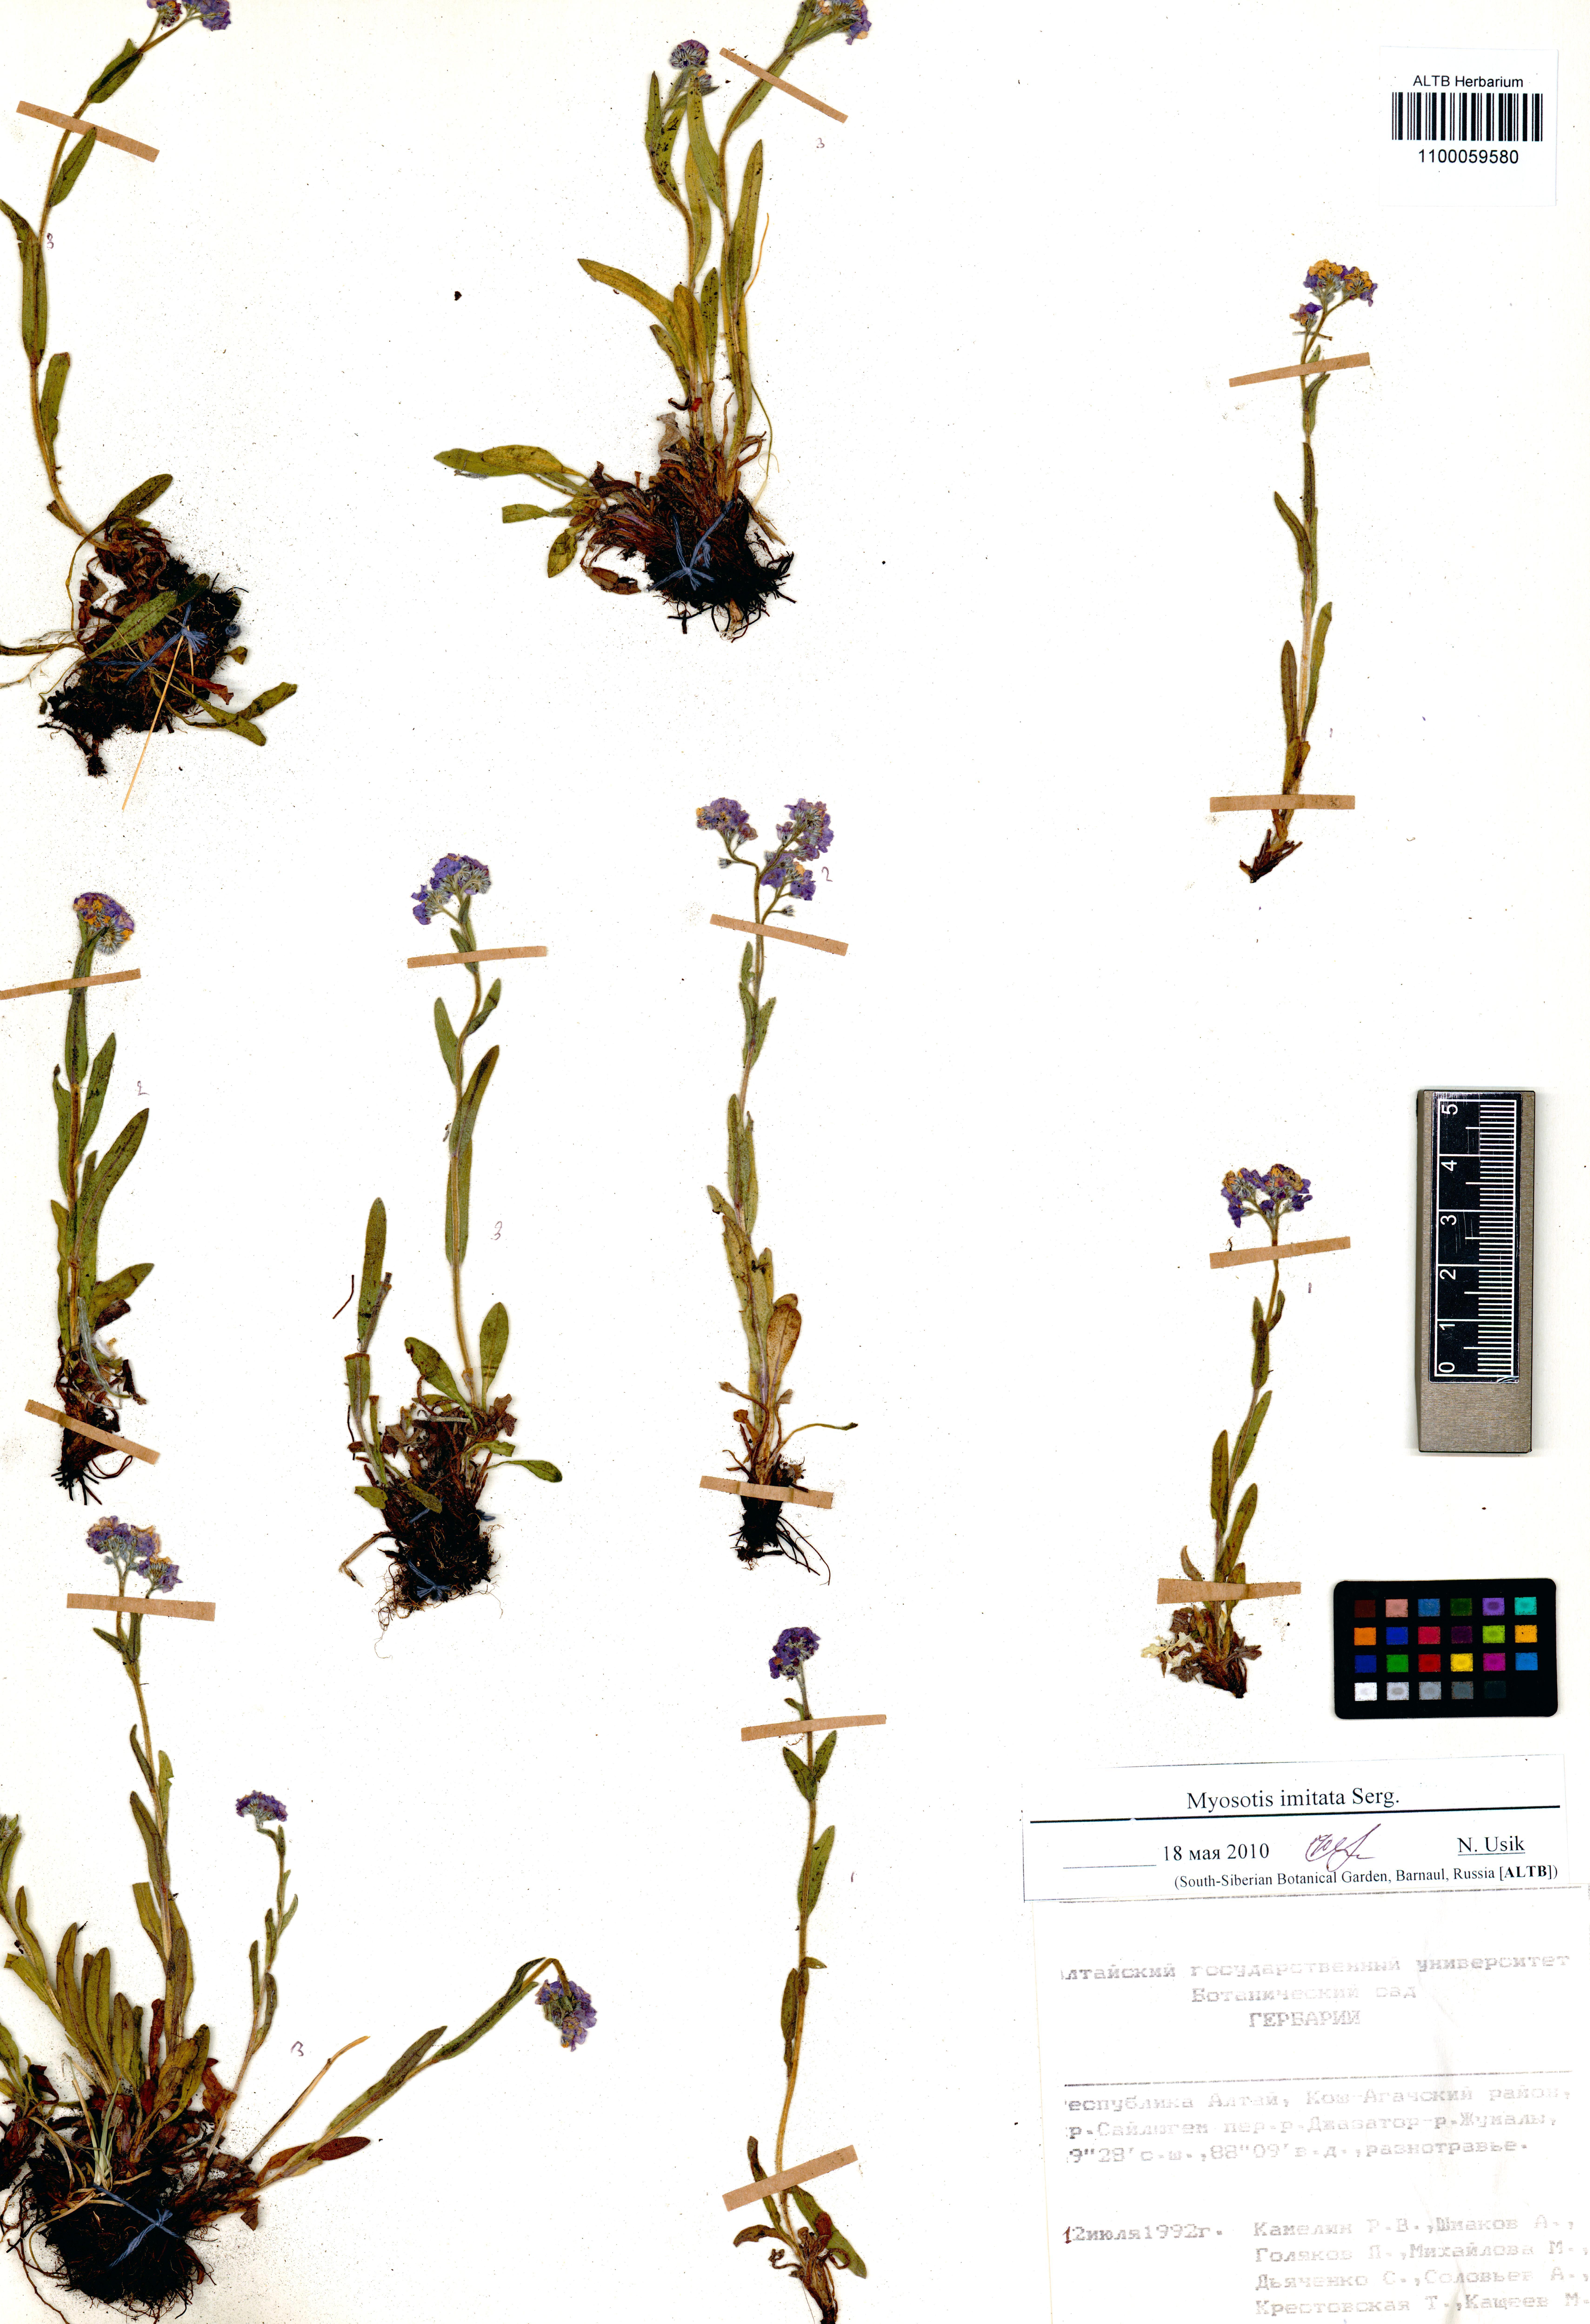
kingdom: Plantae
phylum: Tracheophyta
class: Magnoliopsida
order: Boraginales
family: Boraginaceae
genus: Myosotis
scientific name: Myosotis imitata
